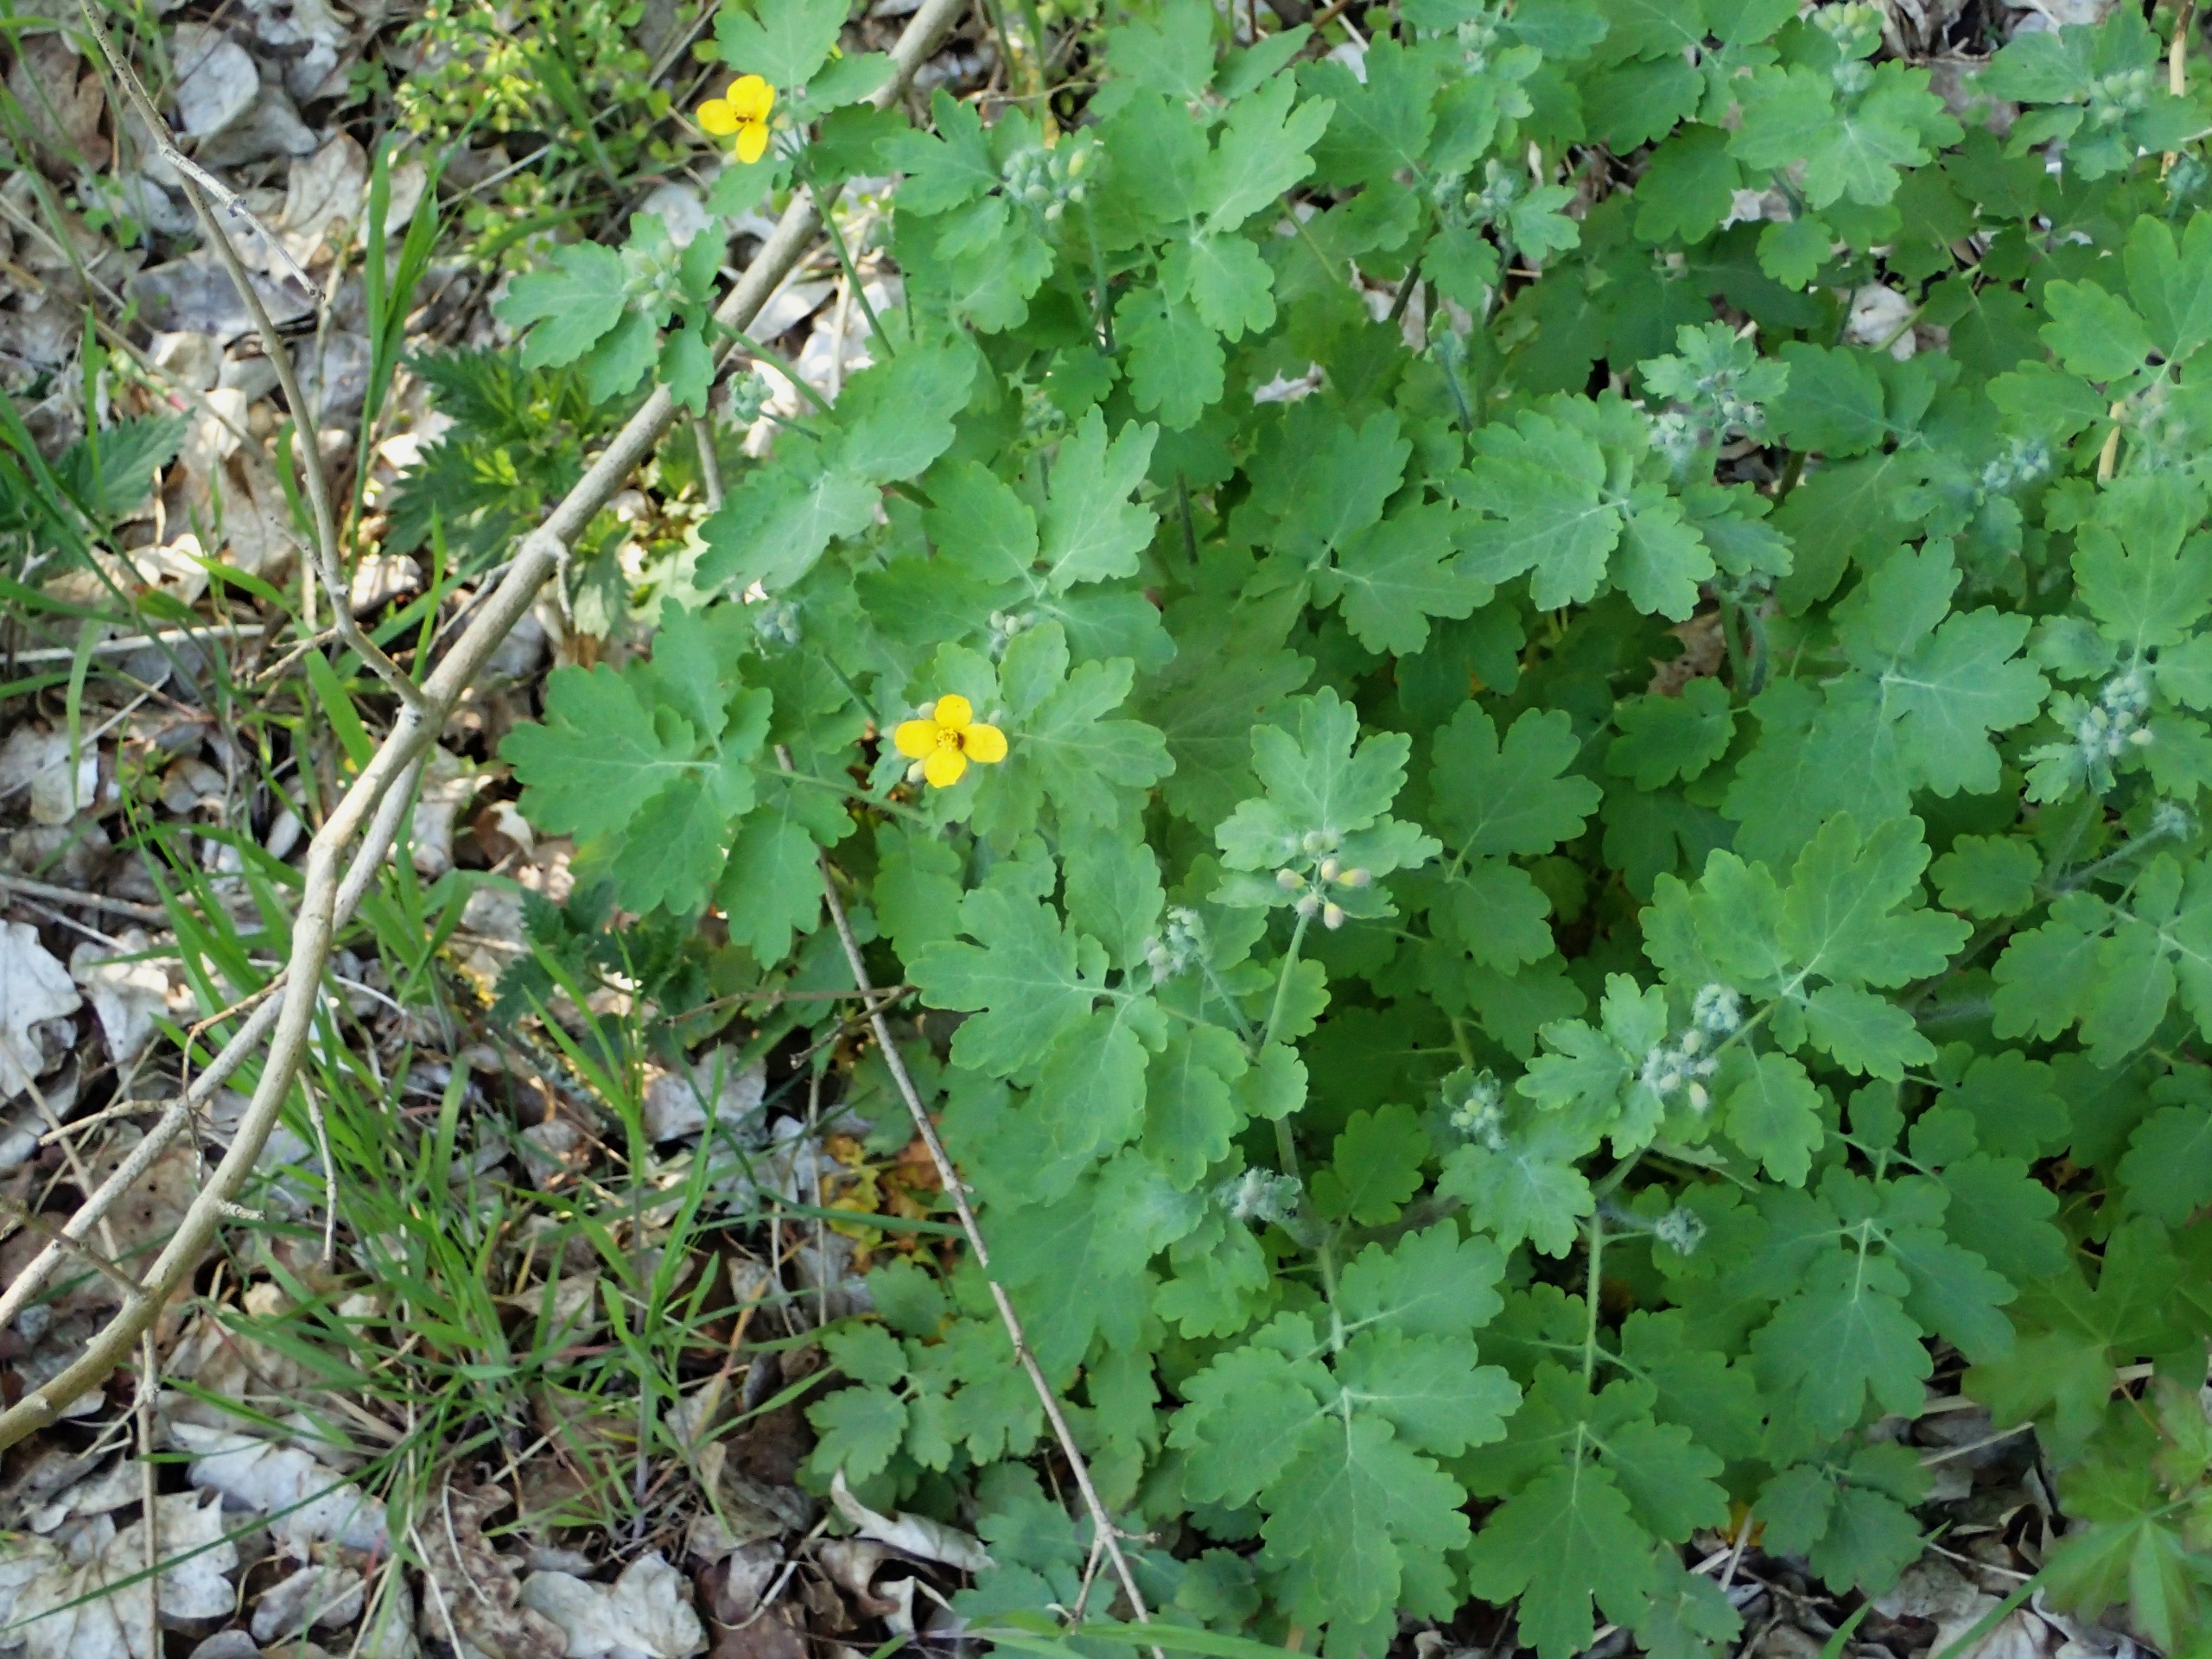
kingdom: Plantae
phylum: Tracheophyta
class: Magnoliopsida
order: Ranunculales
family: Papaveraceae
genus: Chelidonium
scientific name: Chelidonium majus
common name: Svaleurt
